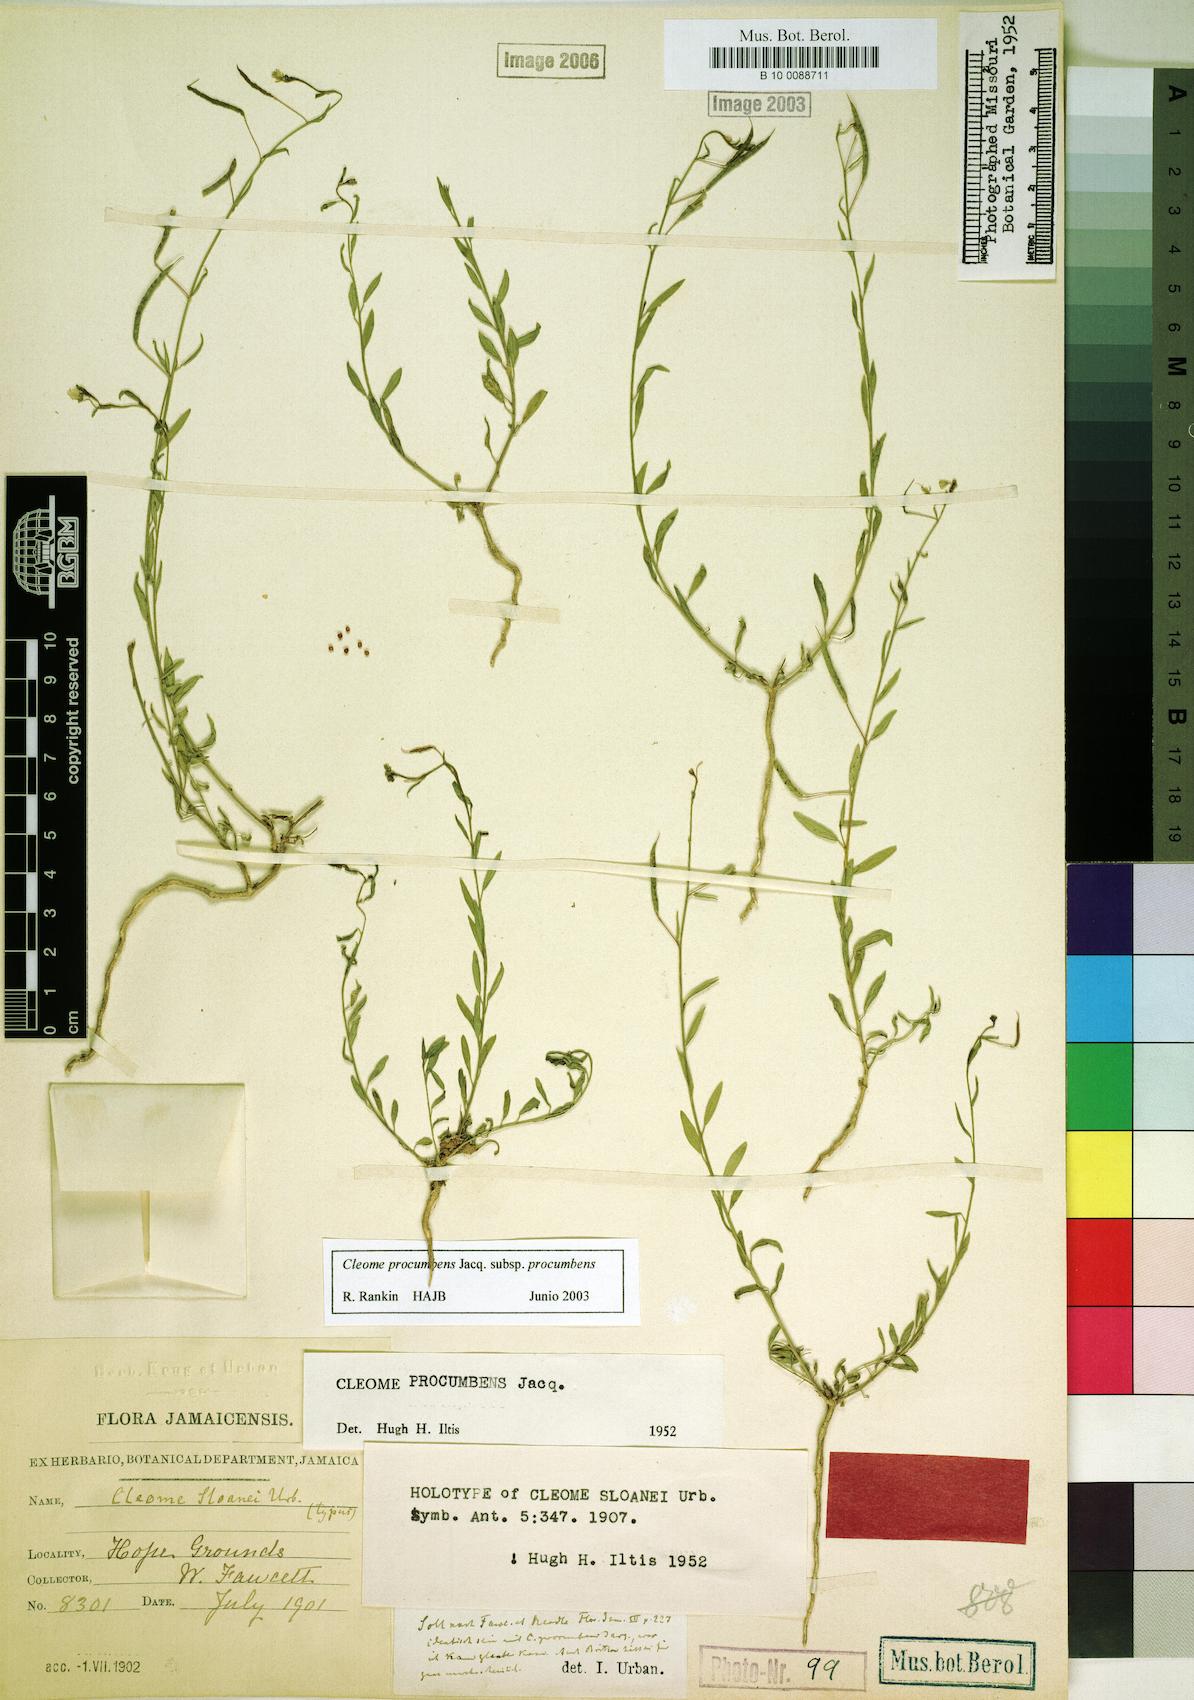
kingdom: Plantae
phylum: Tracheophyta
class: Magnoliopsida
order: Brassicales
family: Cleomaceae
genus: Physostemon
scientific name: Physostemon procumbens
